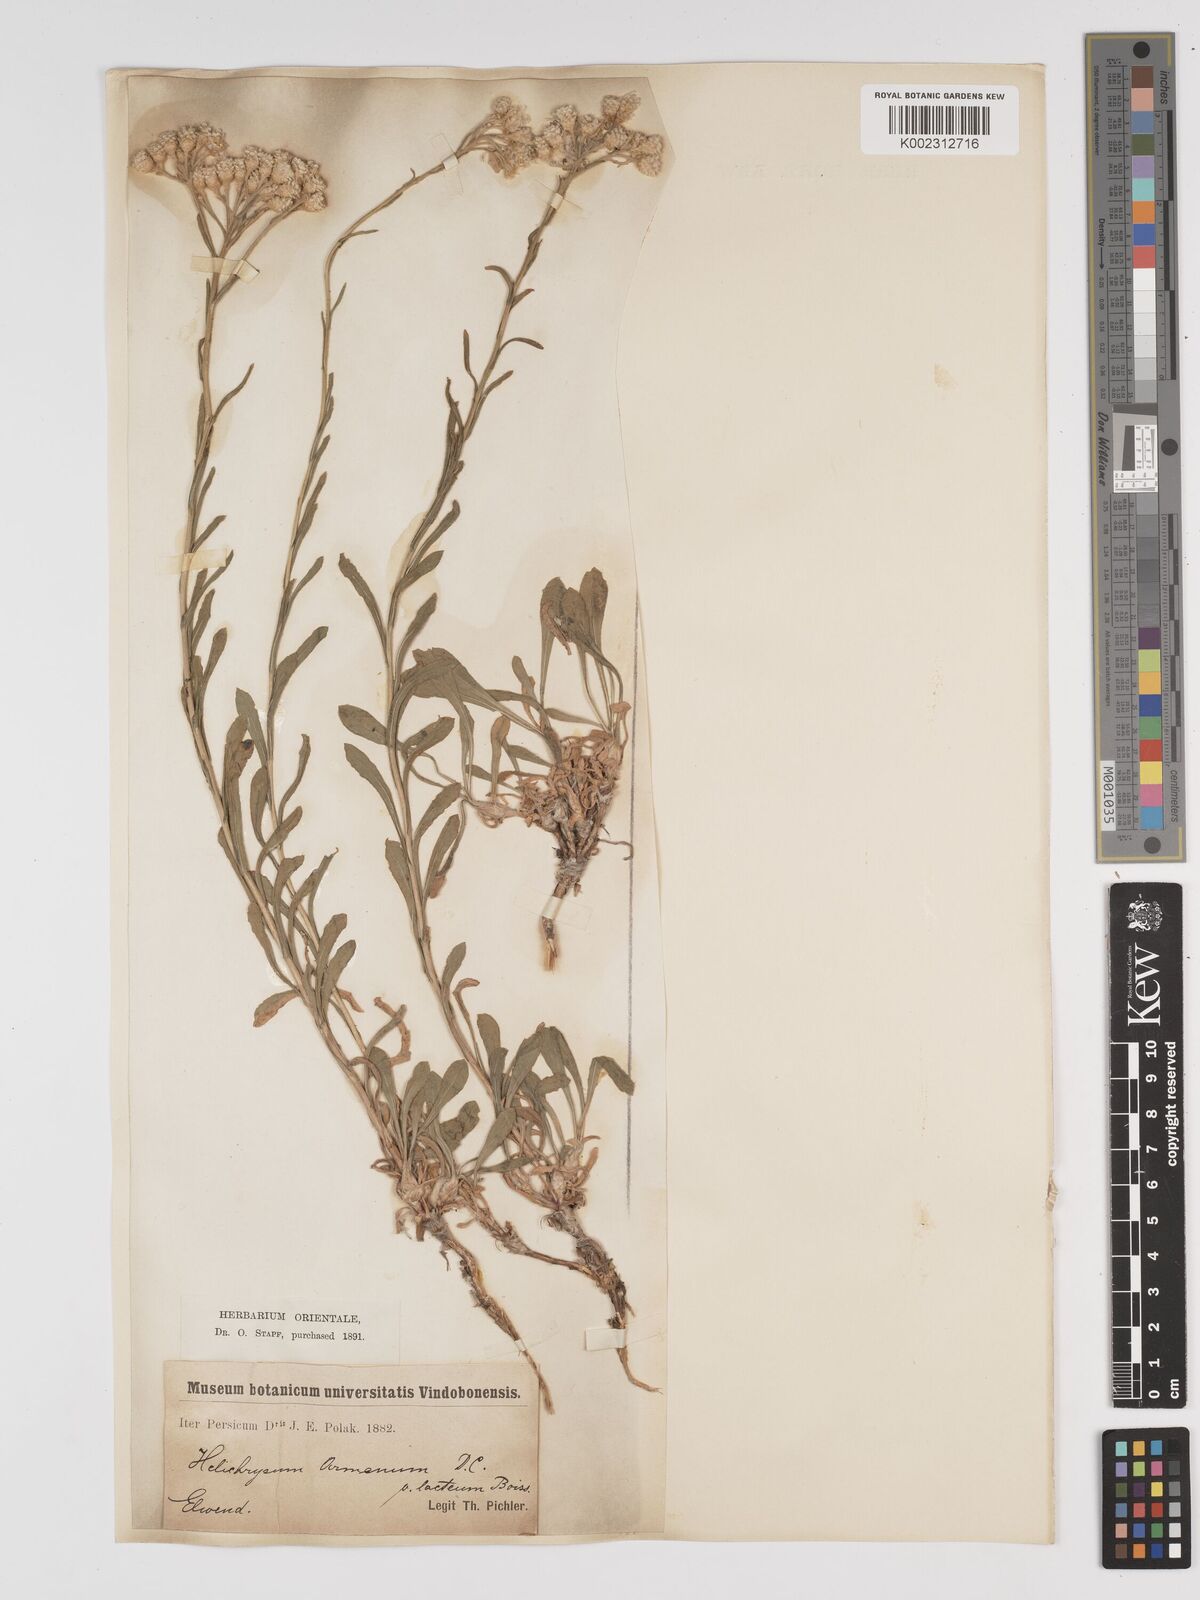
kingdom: Plantae
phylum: Tracheophyta
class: Magnoliopsida
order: Asterales
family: Asteraceae
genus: Helichrysum
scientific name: Helichrysum armenium
